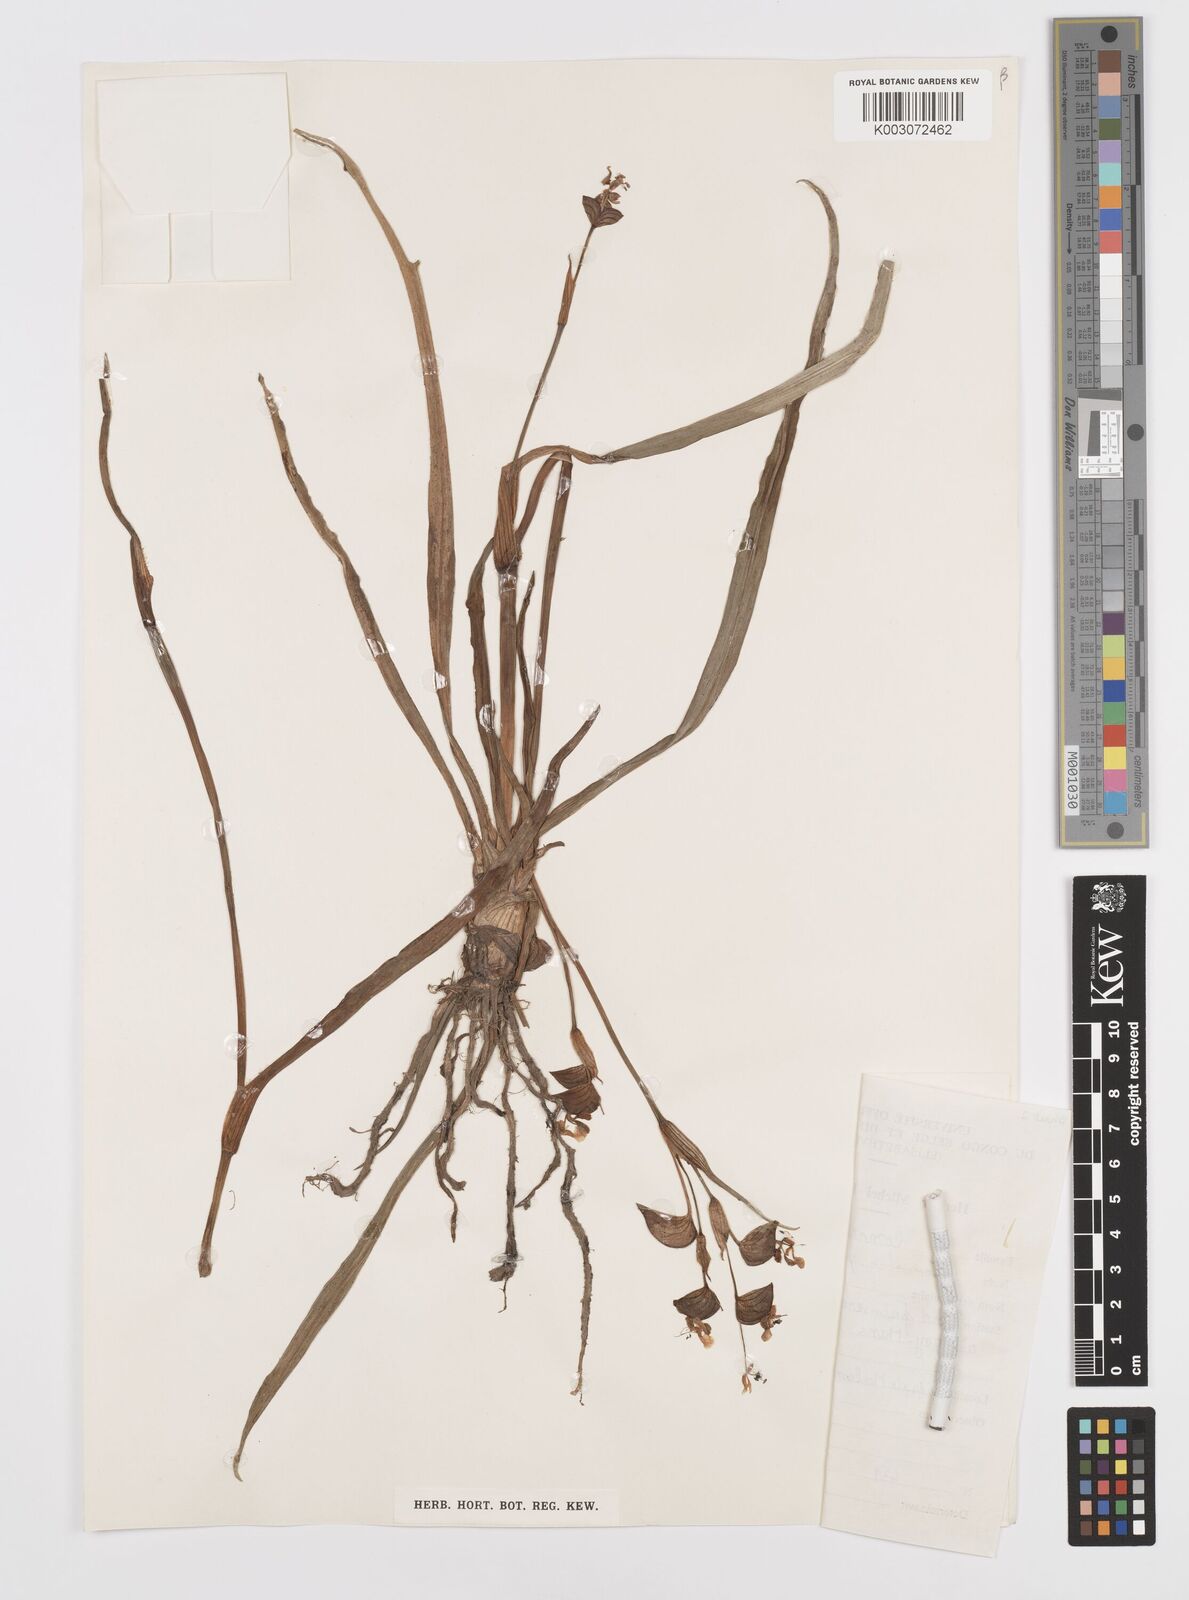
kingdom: Plantae
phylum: Tracheophyta
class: Liliopsida
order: Commelinales
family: Commelinaceae
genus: Commelina
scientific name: Commelina
